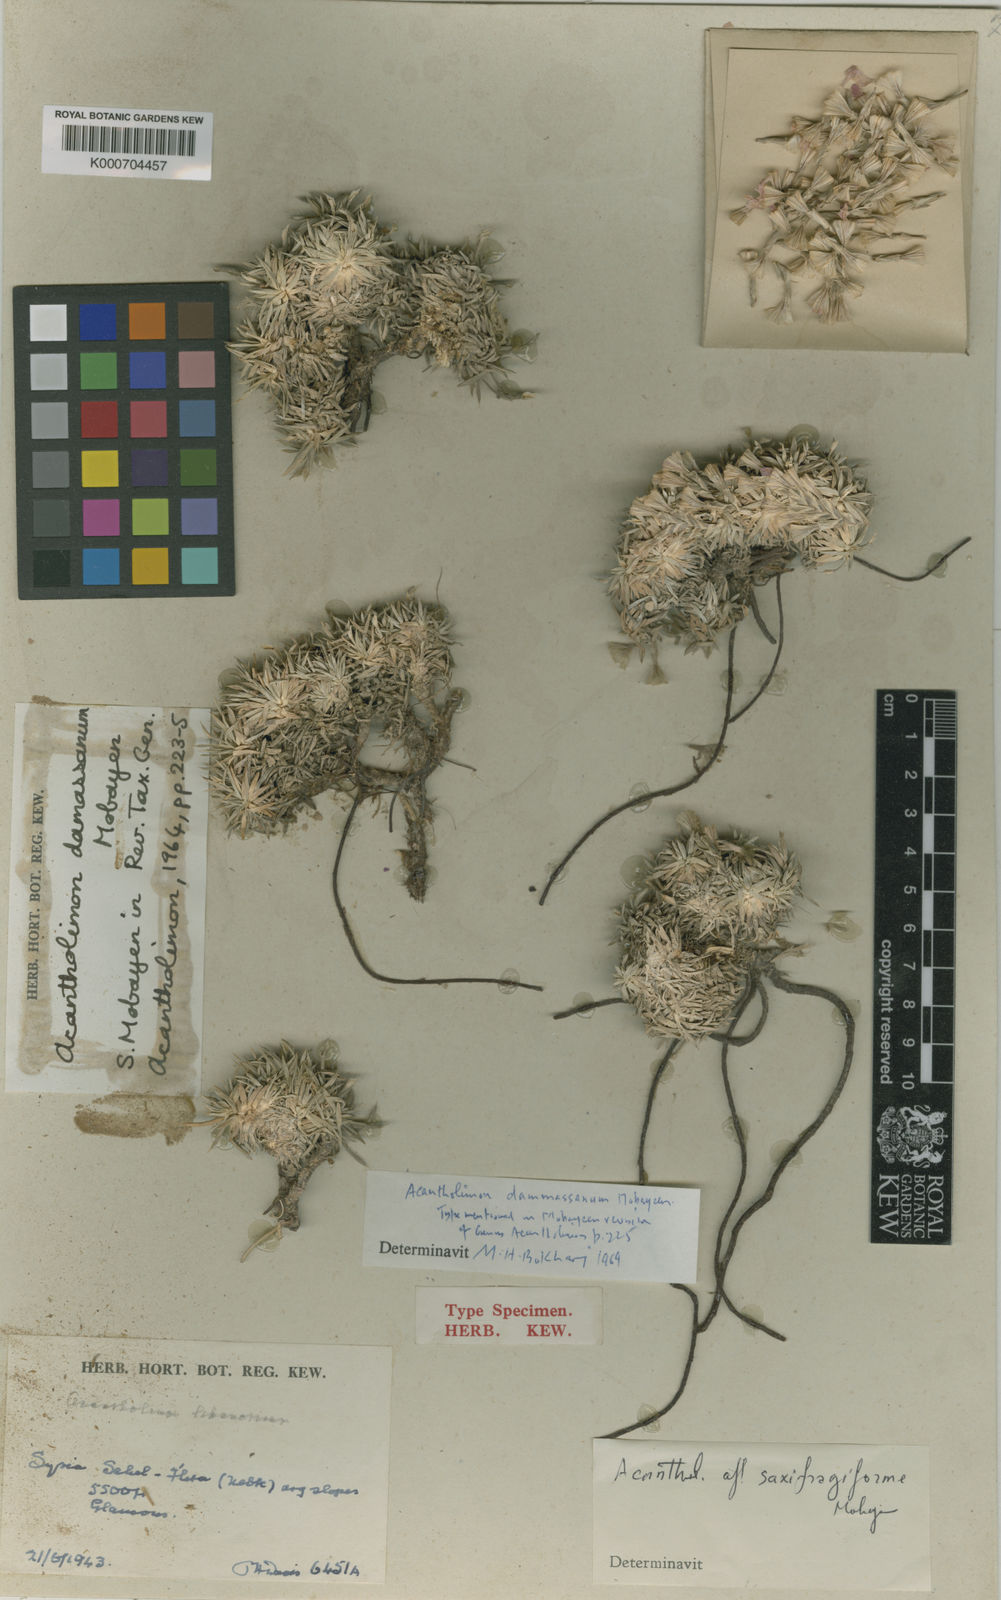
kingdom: Plantae
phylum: Tracheophyta
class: Magnoliopsida
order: Caryophyllales
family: Plumbaginaceae
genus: Acantholimon
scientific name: Acantholimon damassanum
